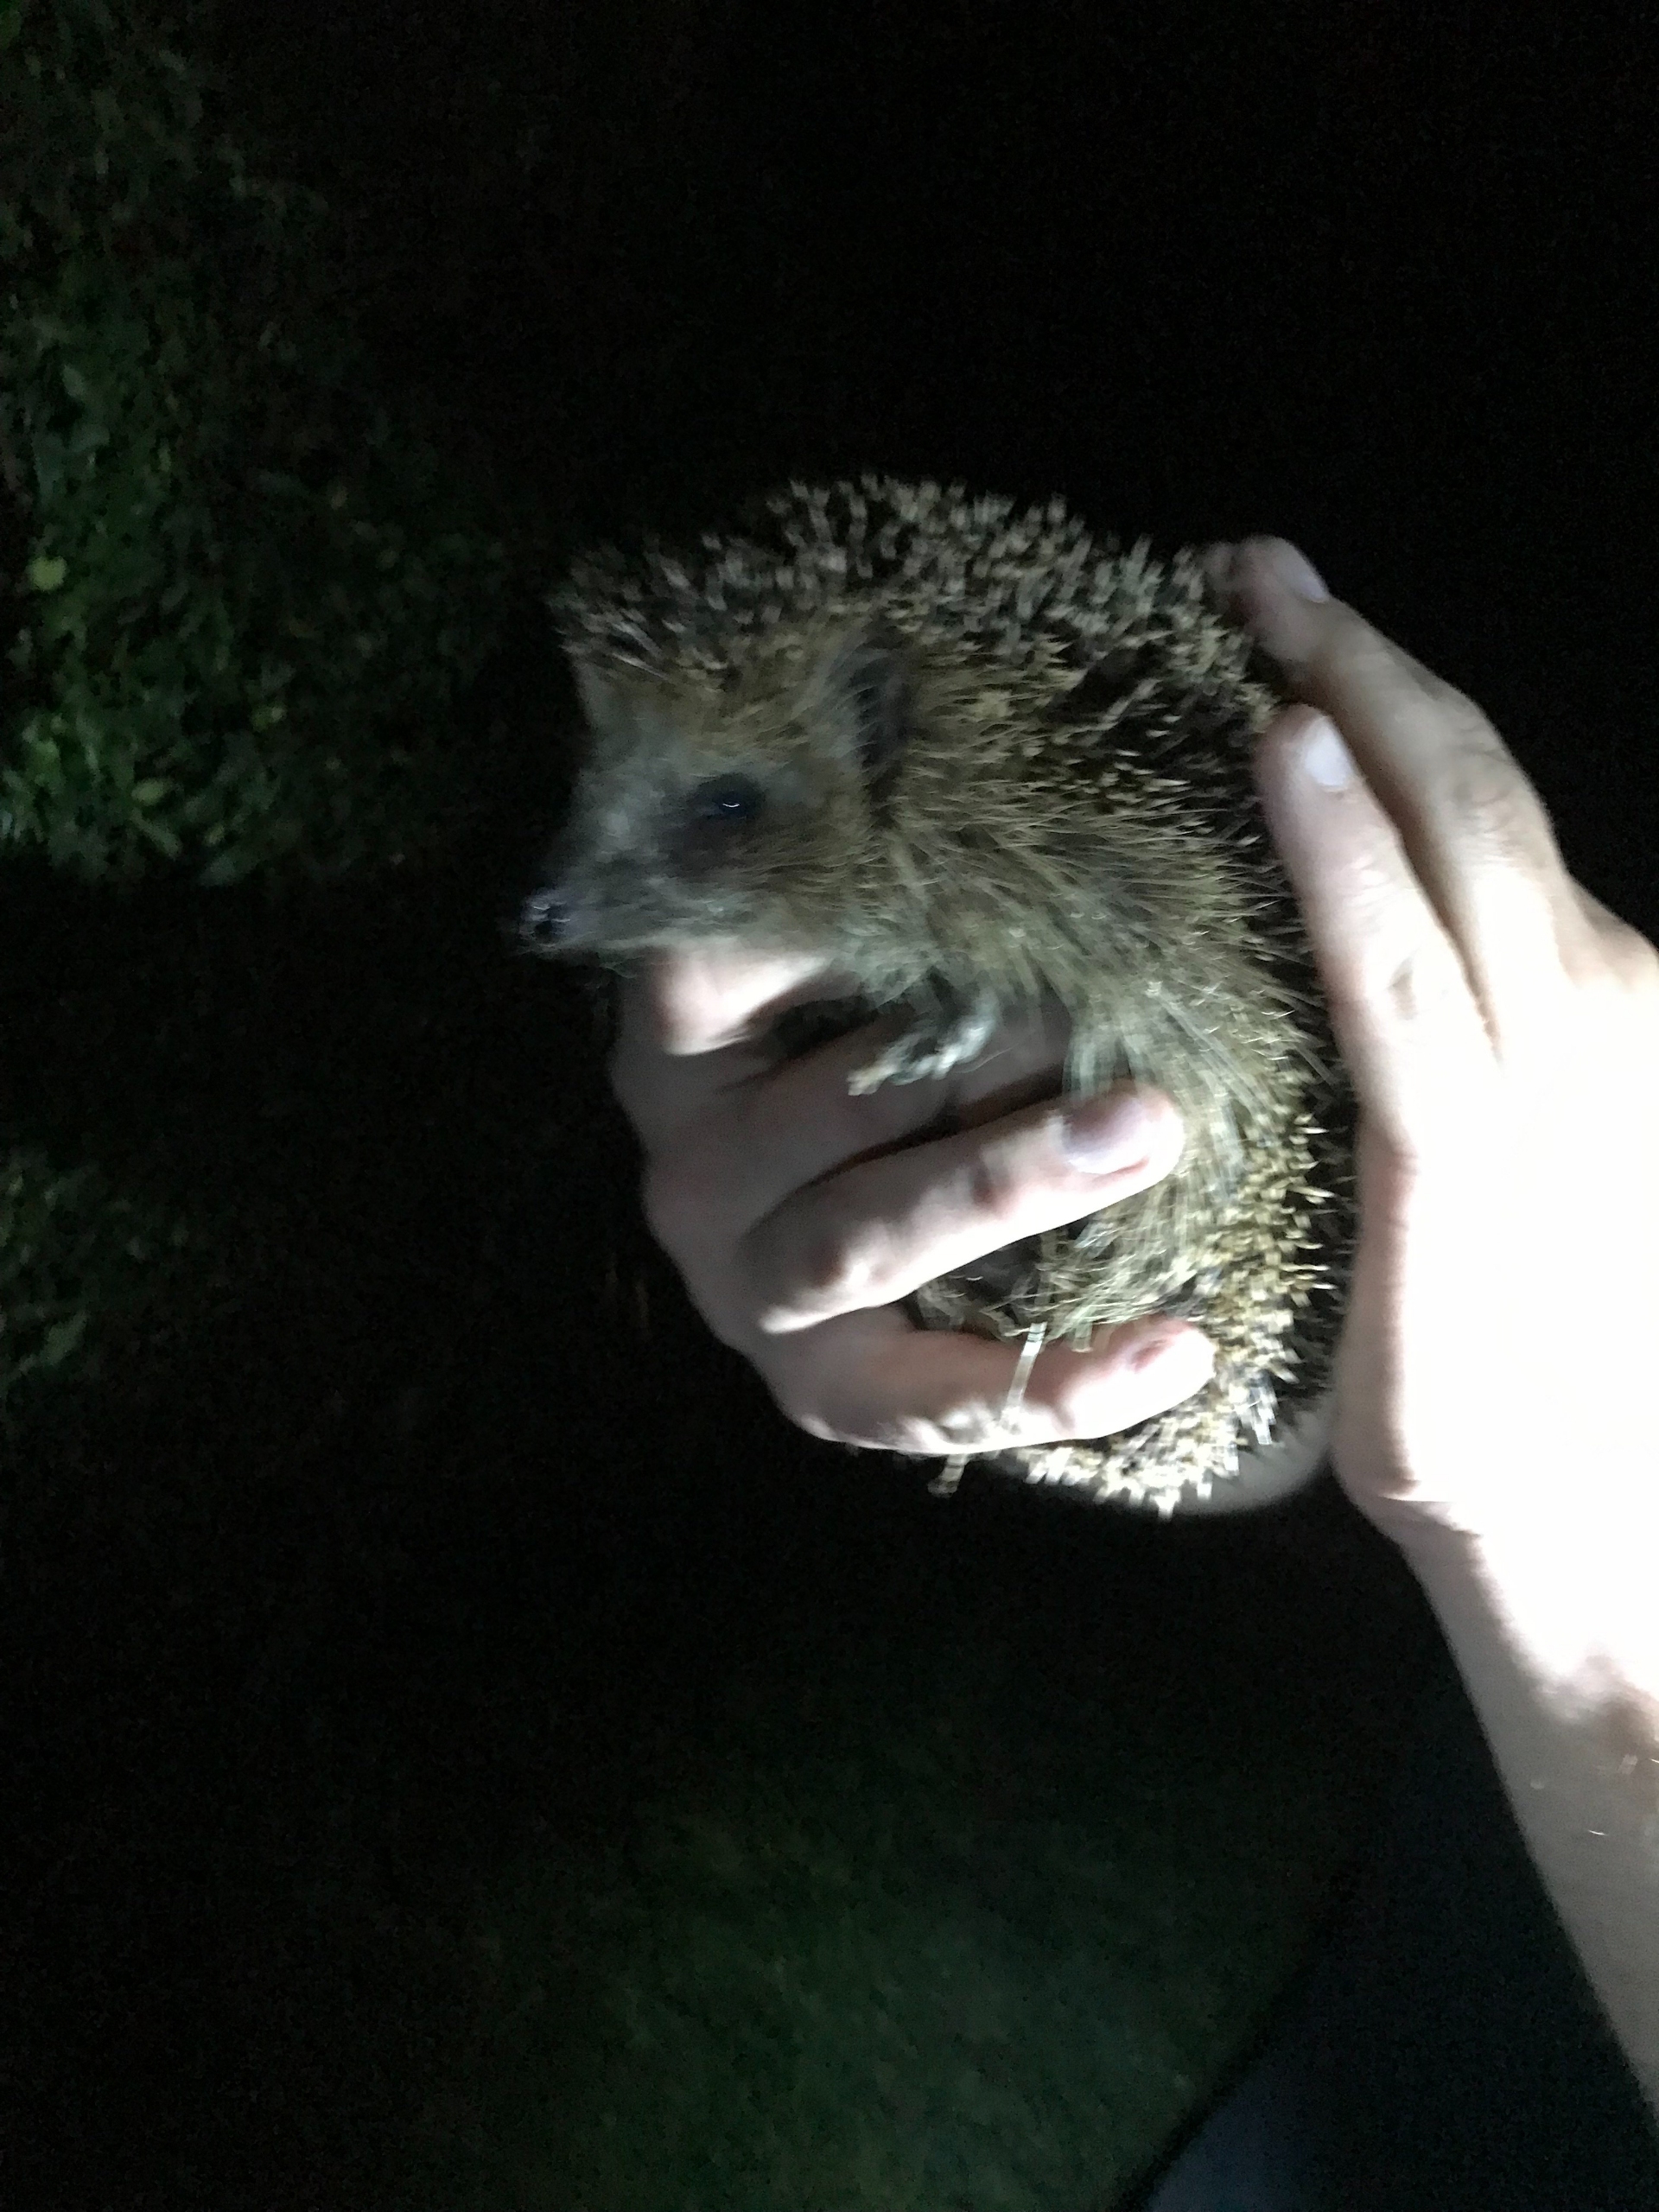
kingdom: Animalia
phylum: Chordata
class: Mammalia
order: Erinaceomorpha
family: Erinaceidae
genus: Erinaceus
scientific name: Erinaceus europaeus
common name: Pindsvin
